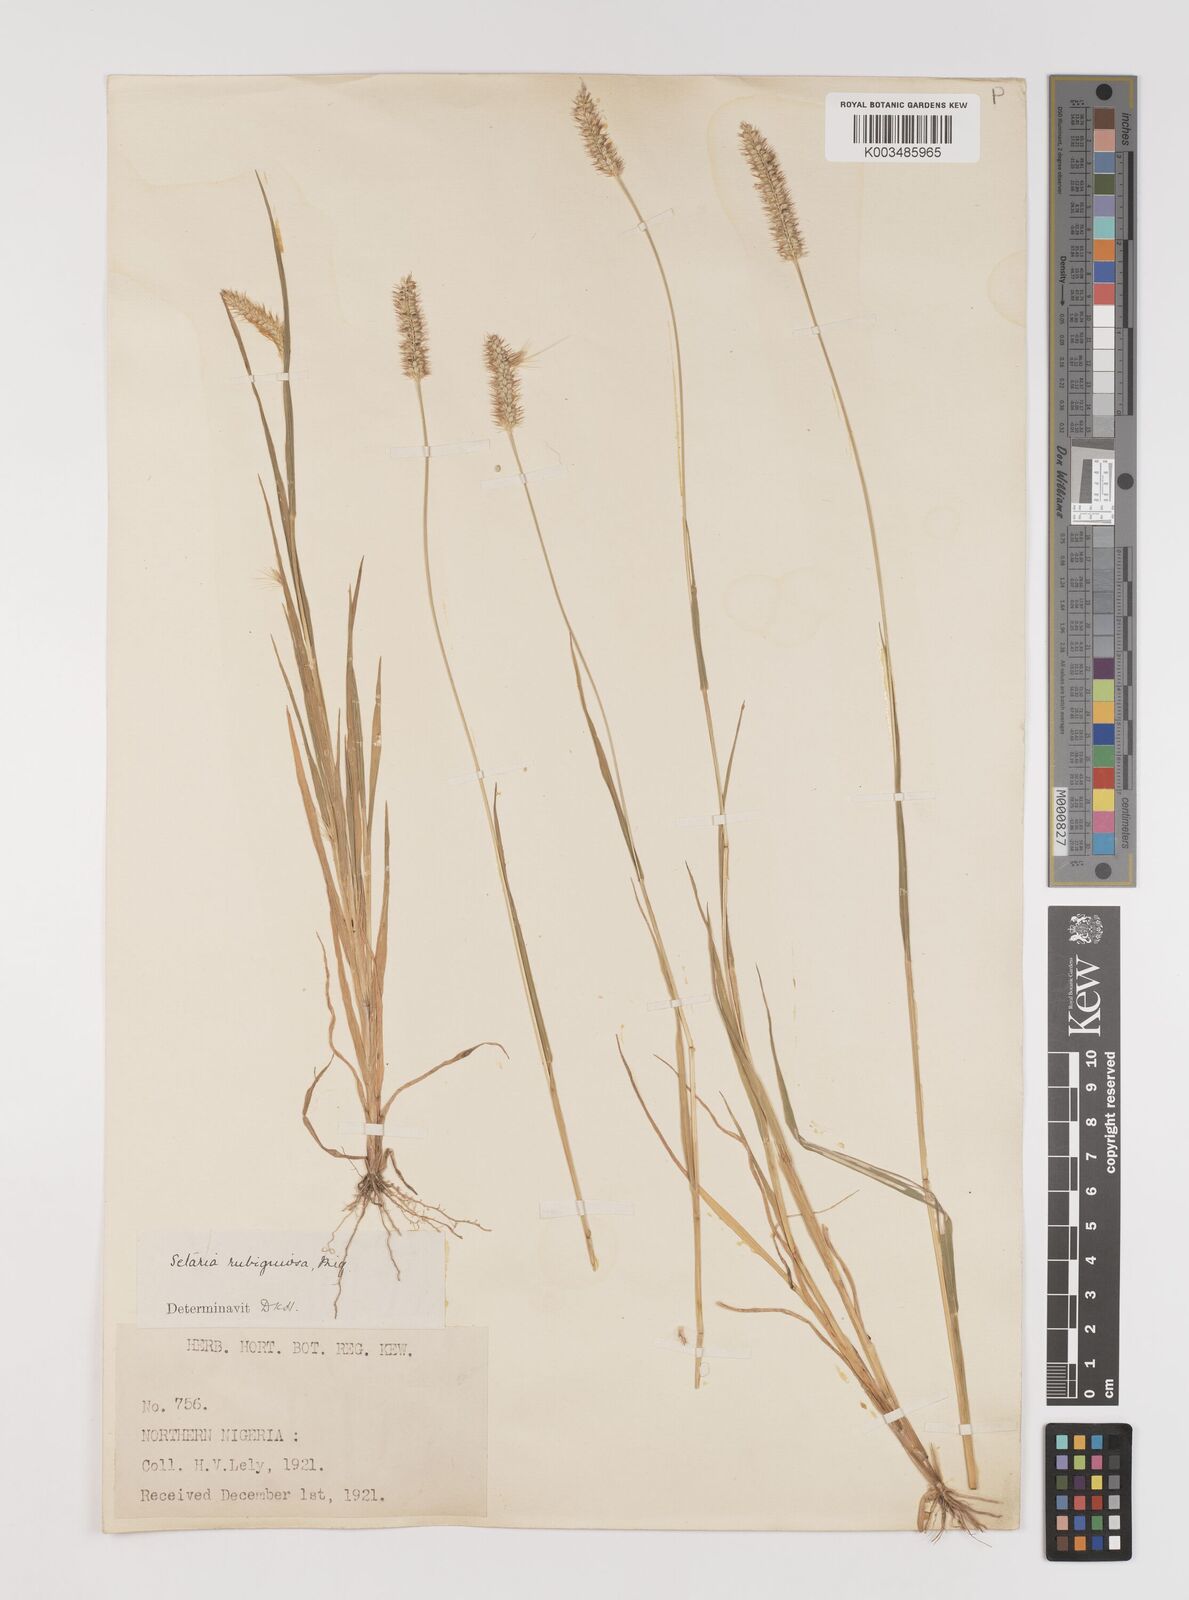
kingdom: Plantae
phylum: Tracheophyta
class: Liliopsida
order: Poales
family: Poaceae
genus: Setaria
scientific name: Setaria pumila
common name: Yellow bristle-grass
